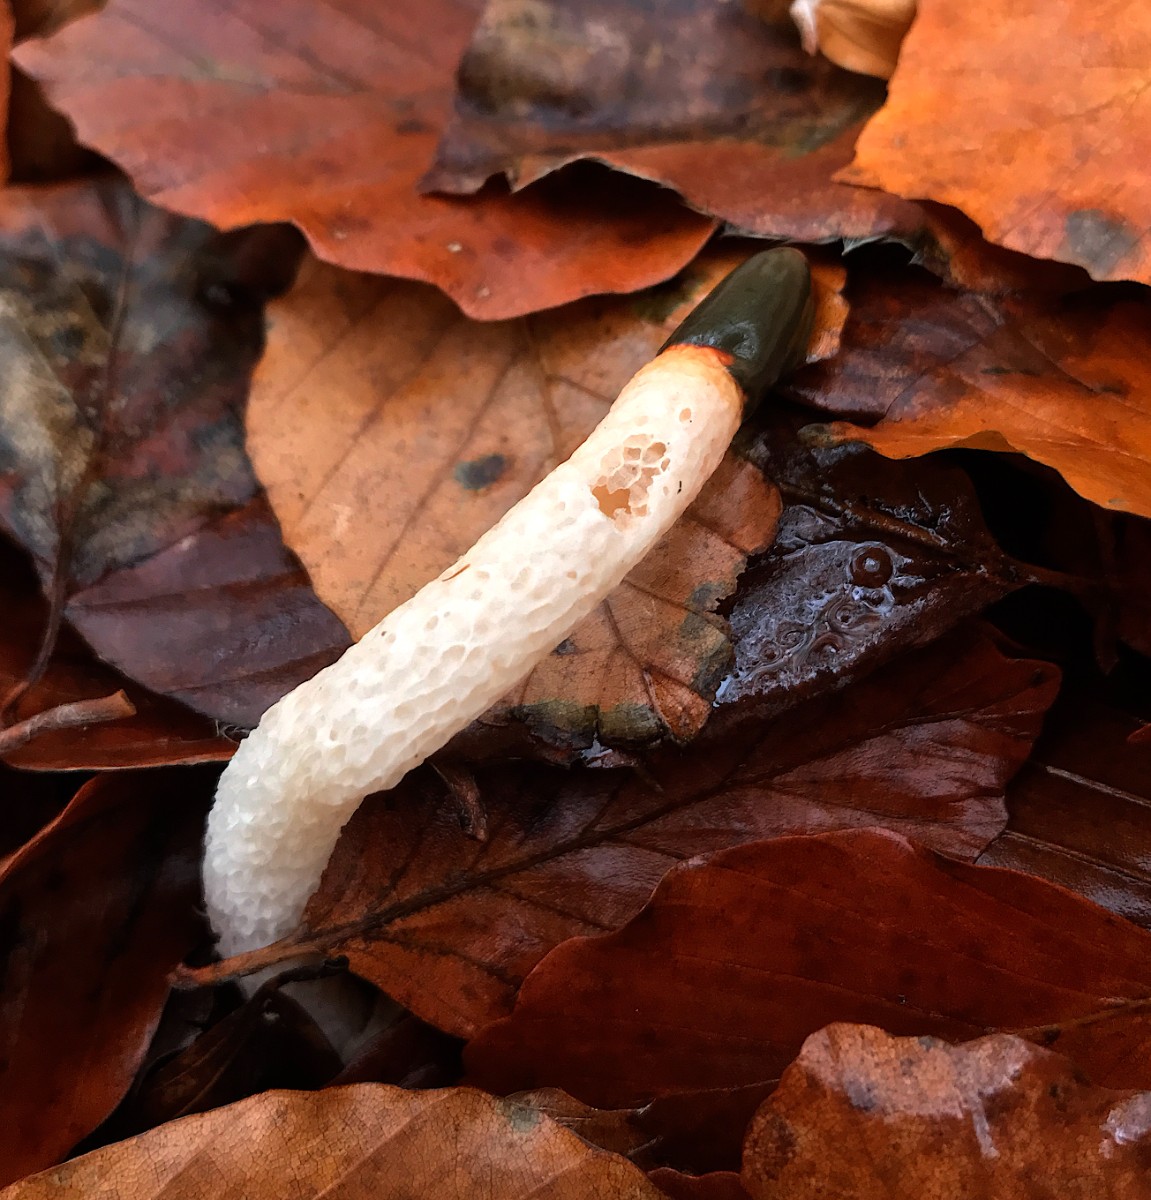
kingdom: Fungi
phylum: Basidiomycota
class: Agaricomycetes
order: Phallales
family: Phallaceae
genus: Mutinus
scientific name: Mutinus caninus
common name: hunde-stinksvamp
